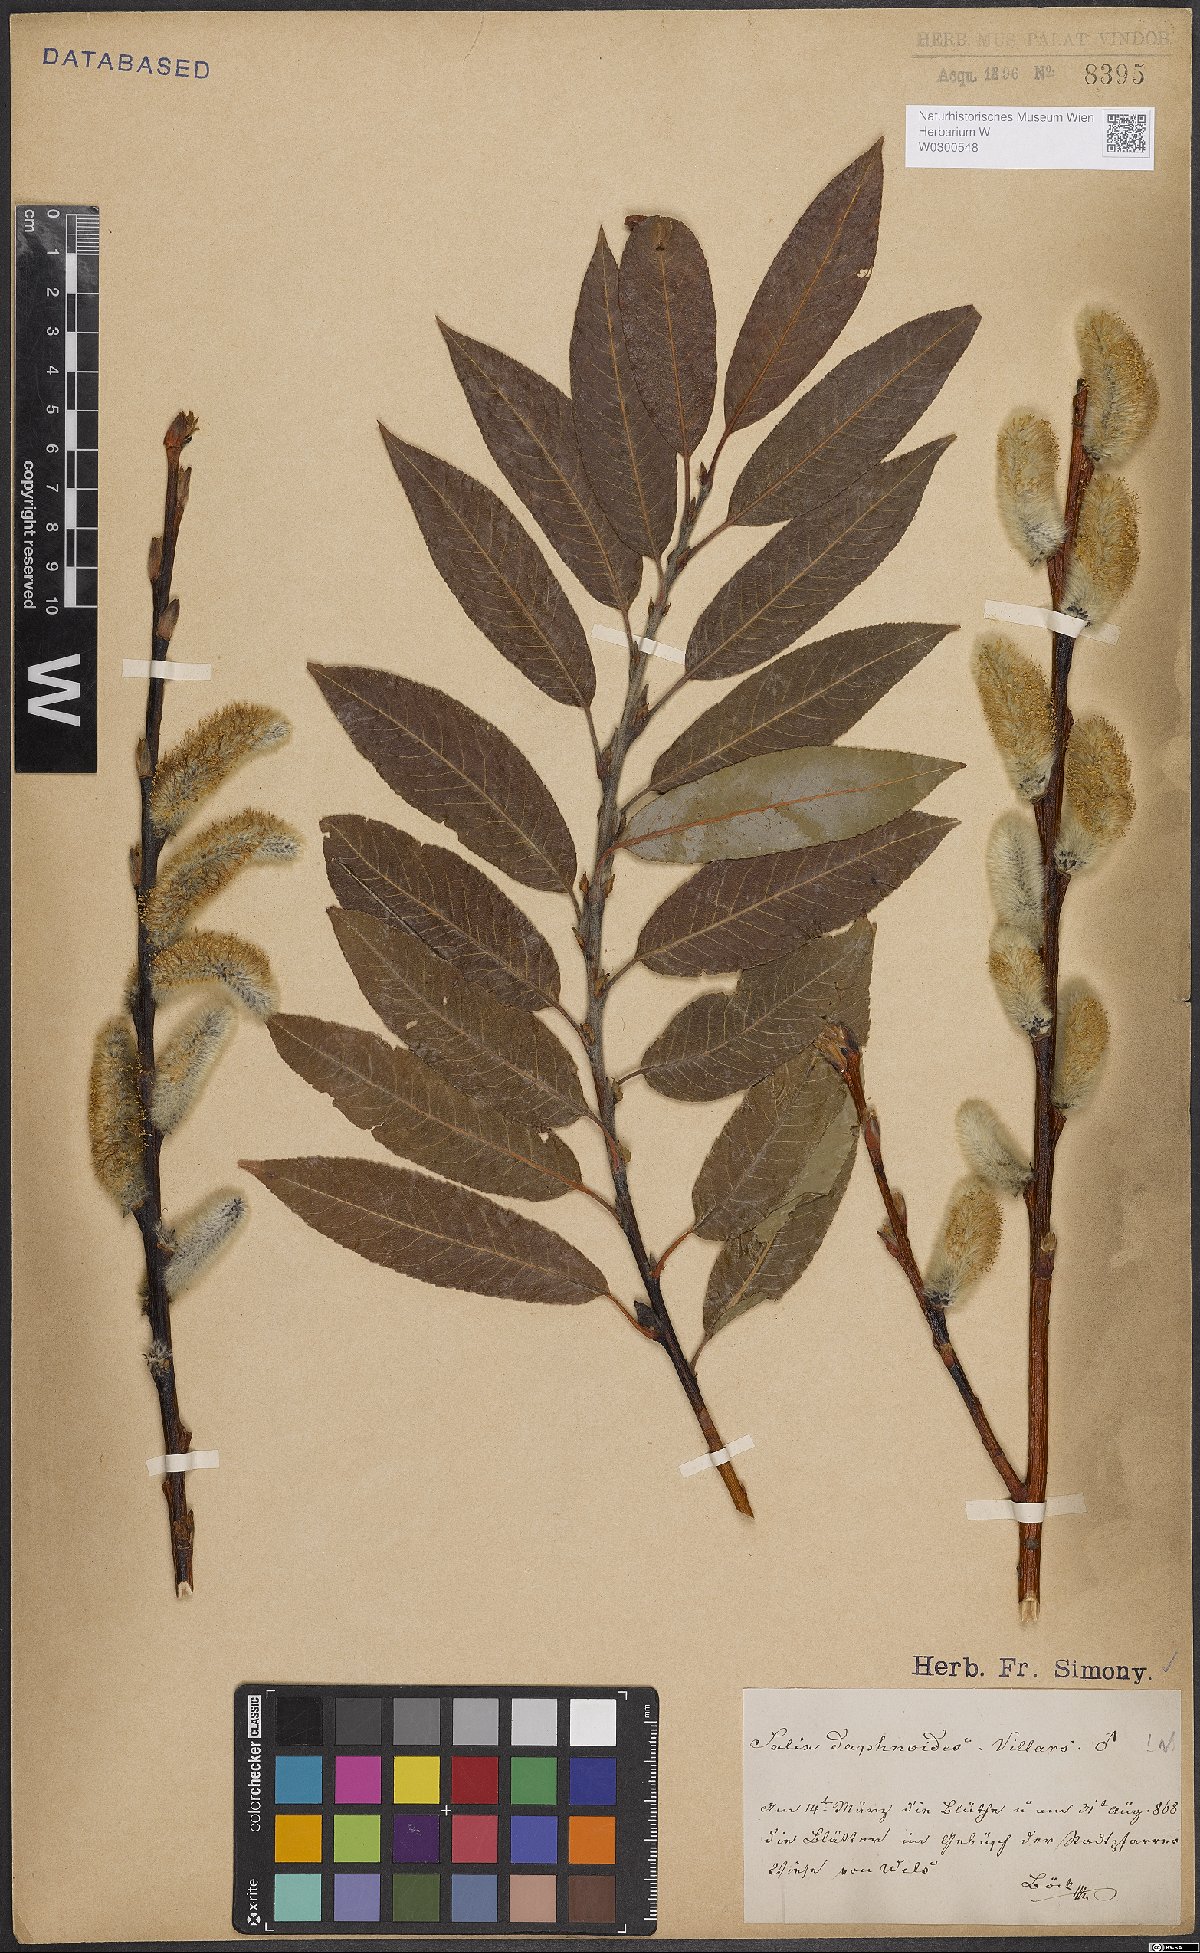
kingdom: Plantae
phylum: Tracheophyta
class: Magnoliopsida
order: Malpighiales
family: Salicaceae
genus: Salix
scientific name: Salix daphnoides
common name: European violet-willow
